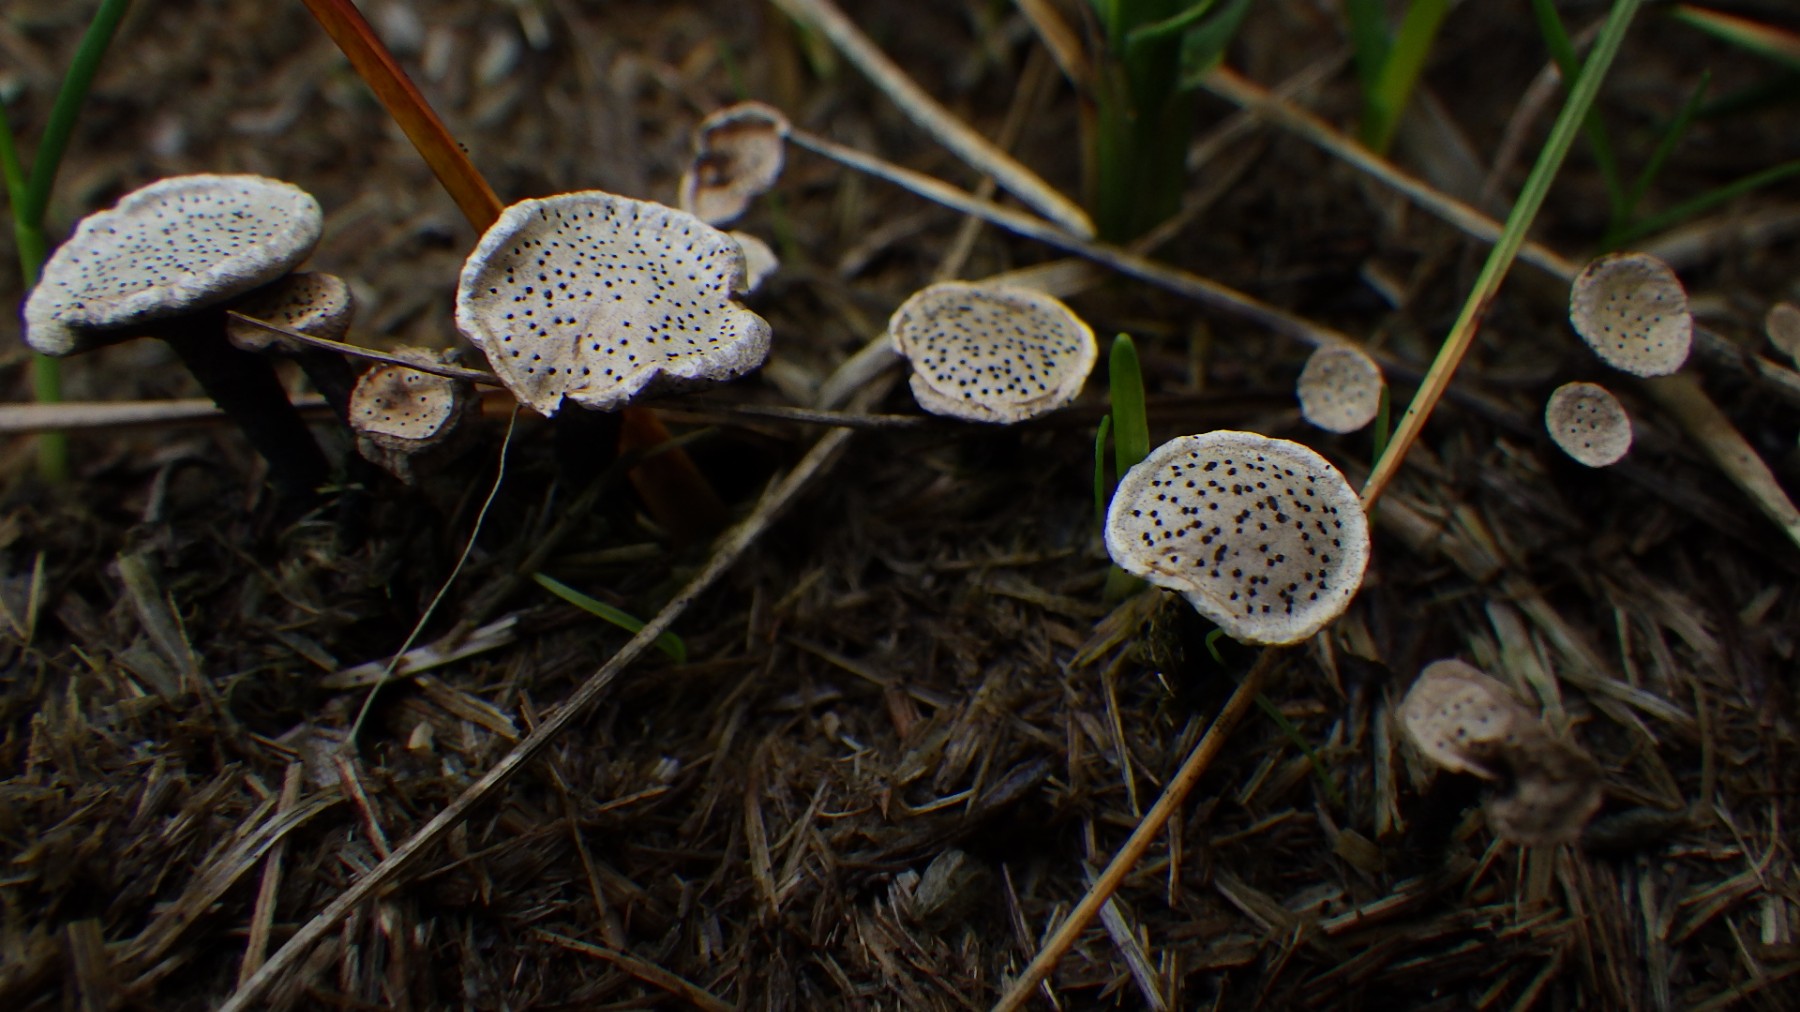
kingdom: Fungi
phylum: Ascomycota
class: Sordariomycetes
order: Xylariales
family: Xylariaceae
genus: Poronia
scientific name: Poronia punctata
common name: stor priksvamp
